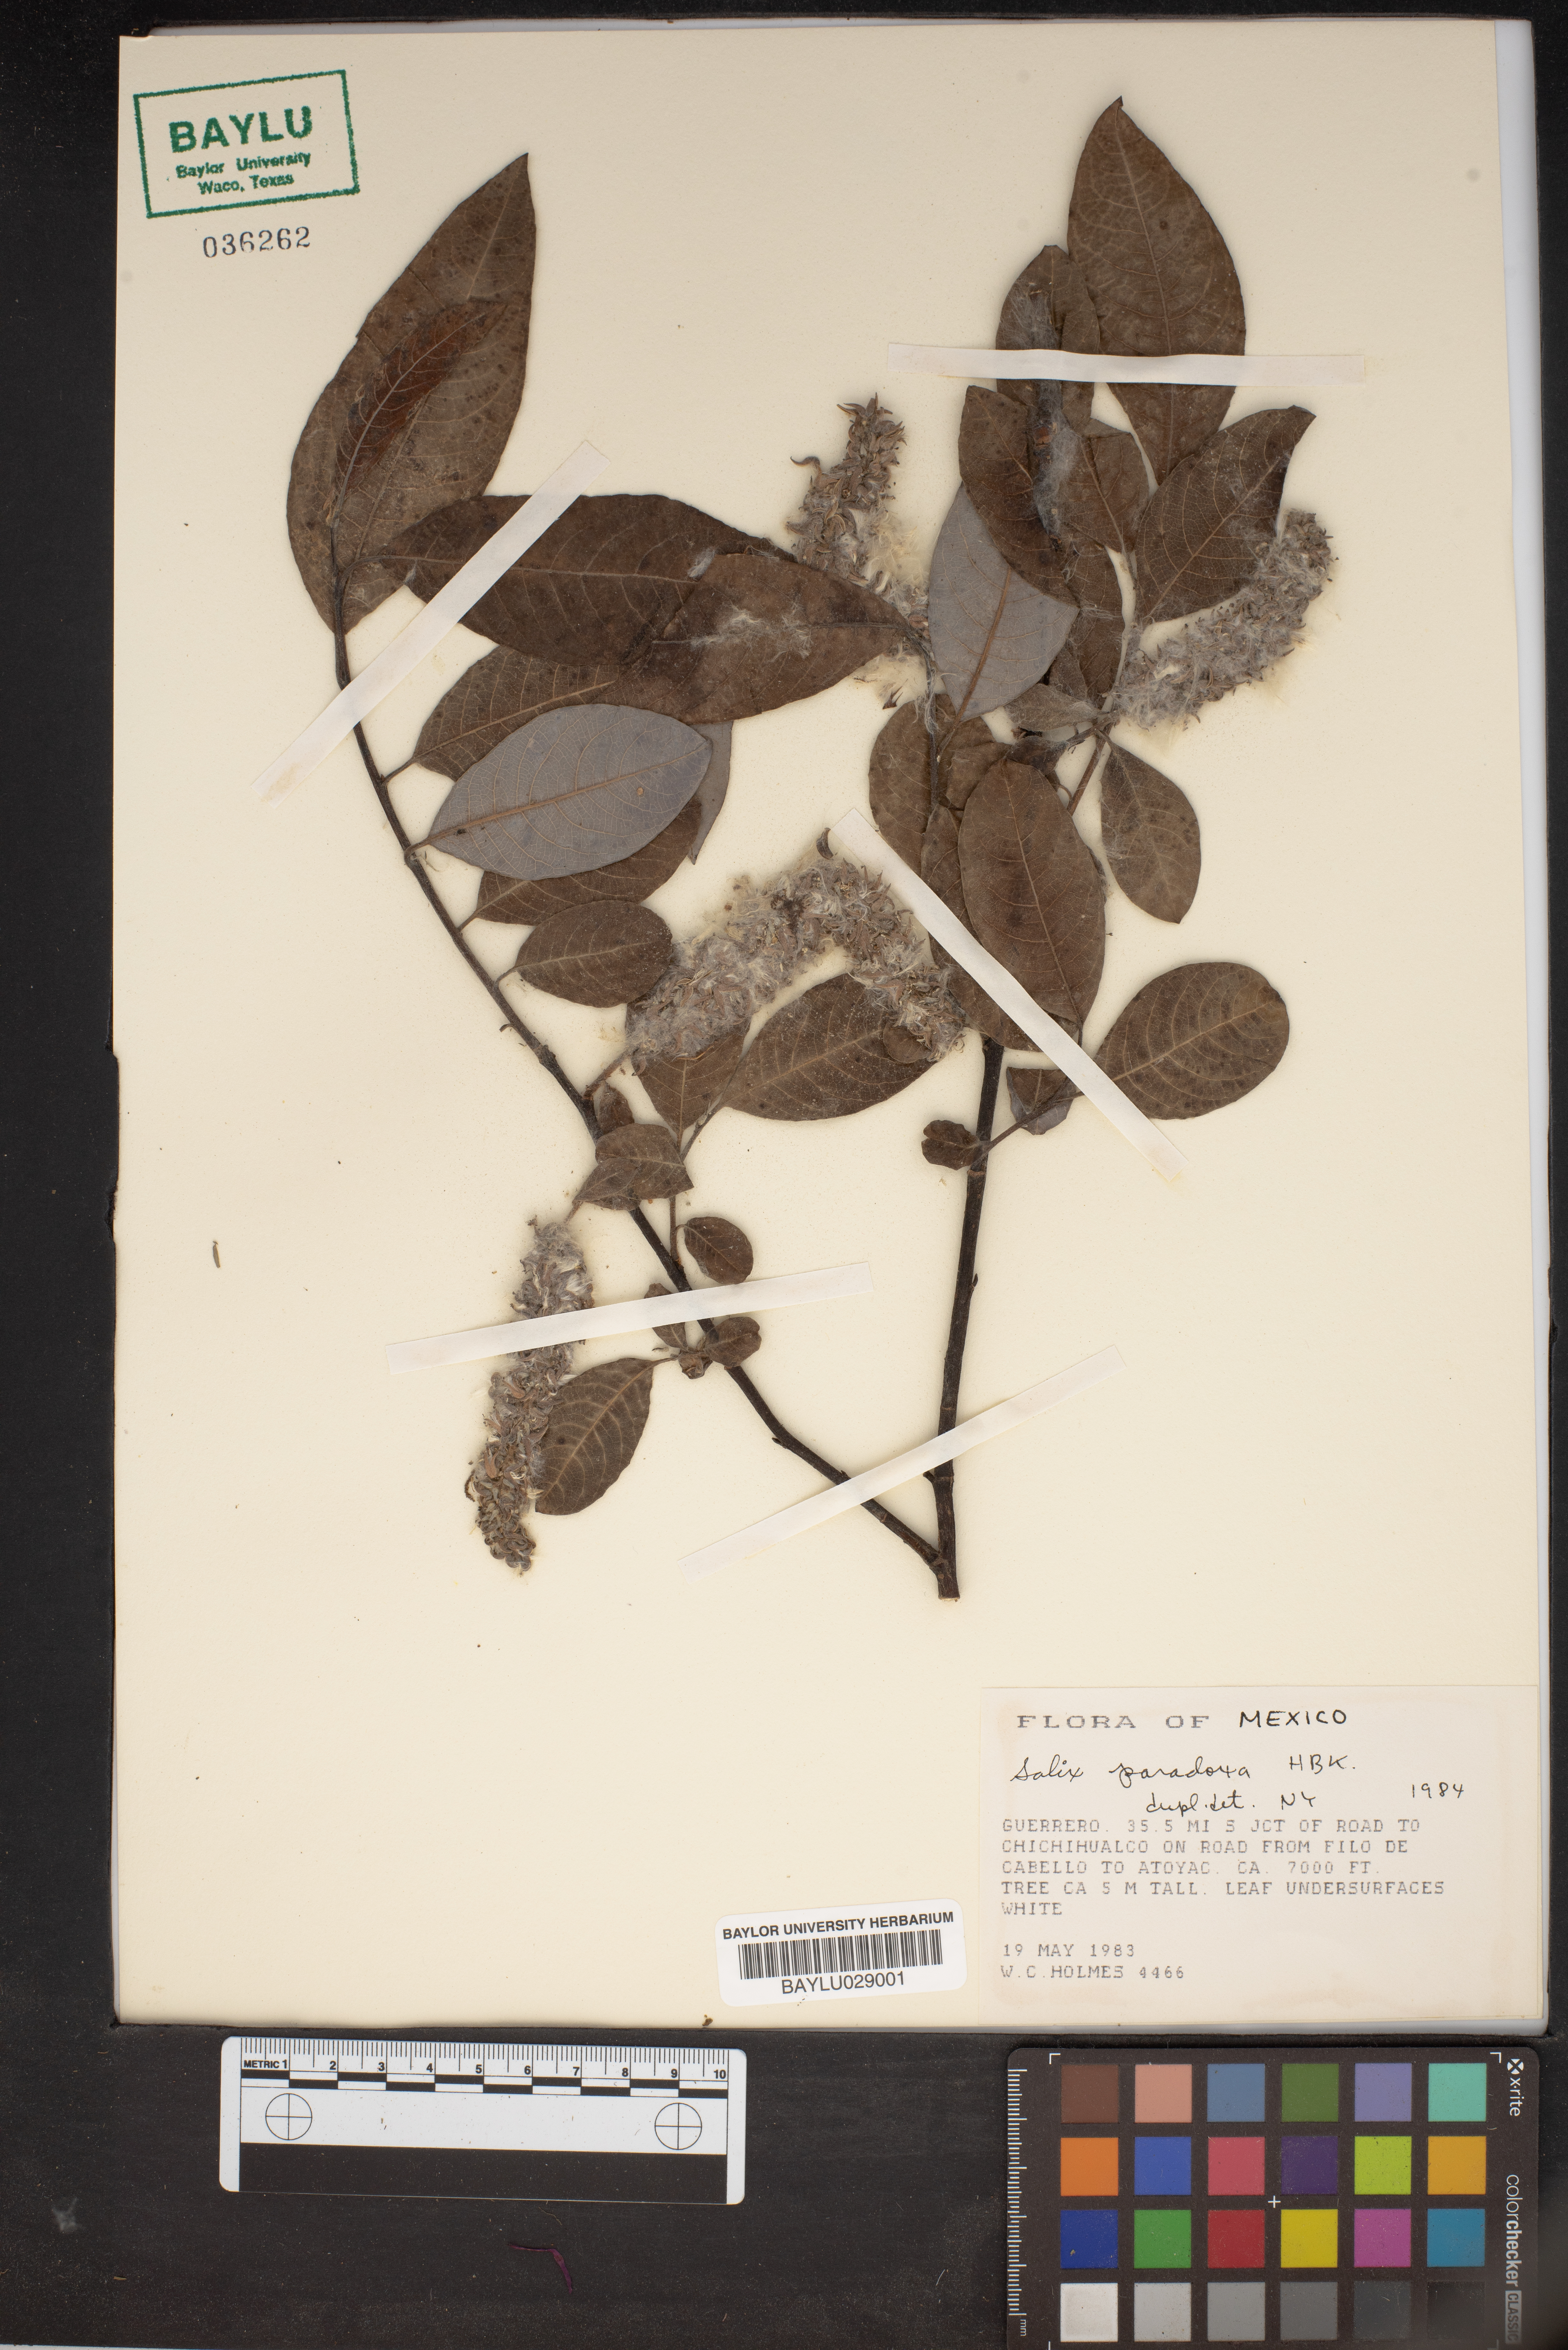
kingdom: Plantae
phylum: Tracheophyta
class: Magnoliopsida
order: Malpighiales
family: Salicaceae
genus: Salix
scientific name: Salix paradoxa
